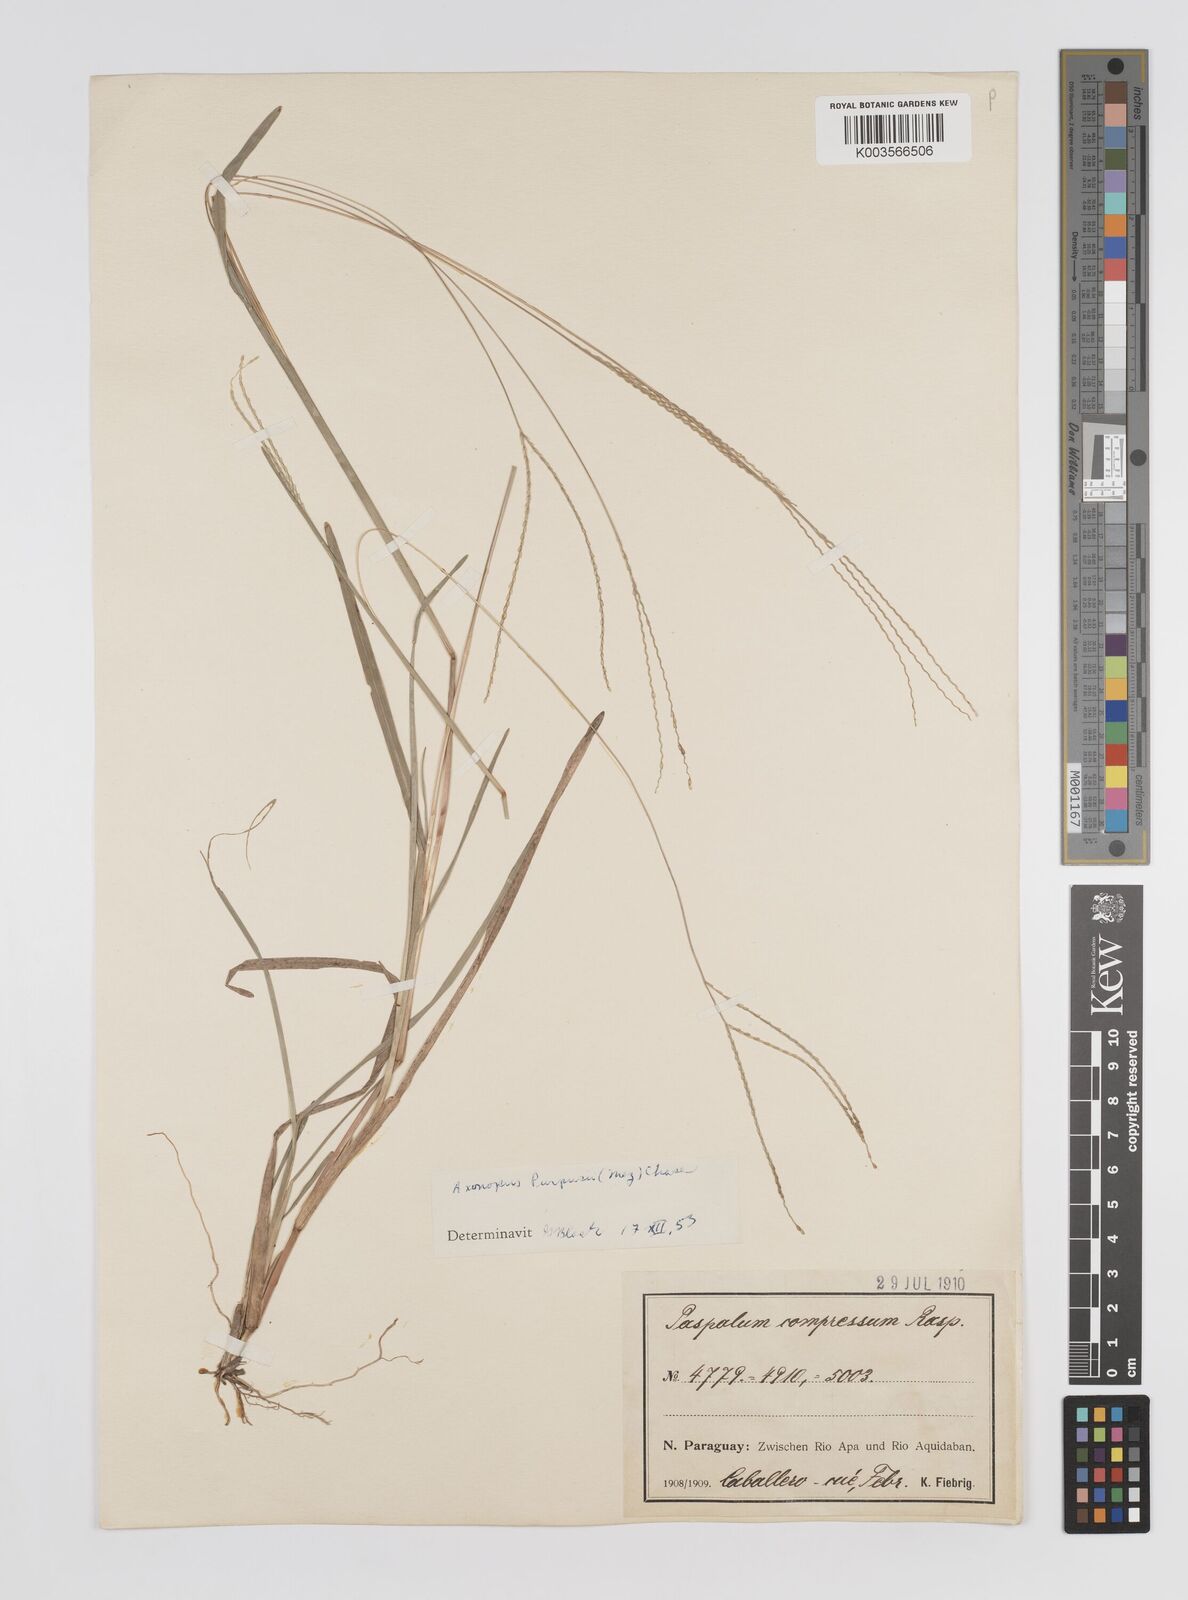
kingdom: Plantae
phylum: Tracheophyta
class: Liliopsida
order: Poales
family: Poaceae
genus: Axonopus
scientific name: Axonopus purpusii
